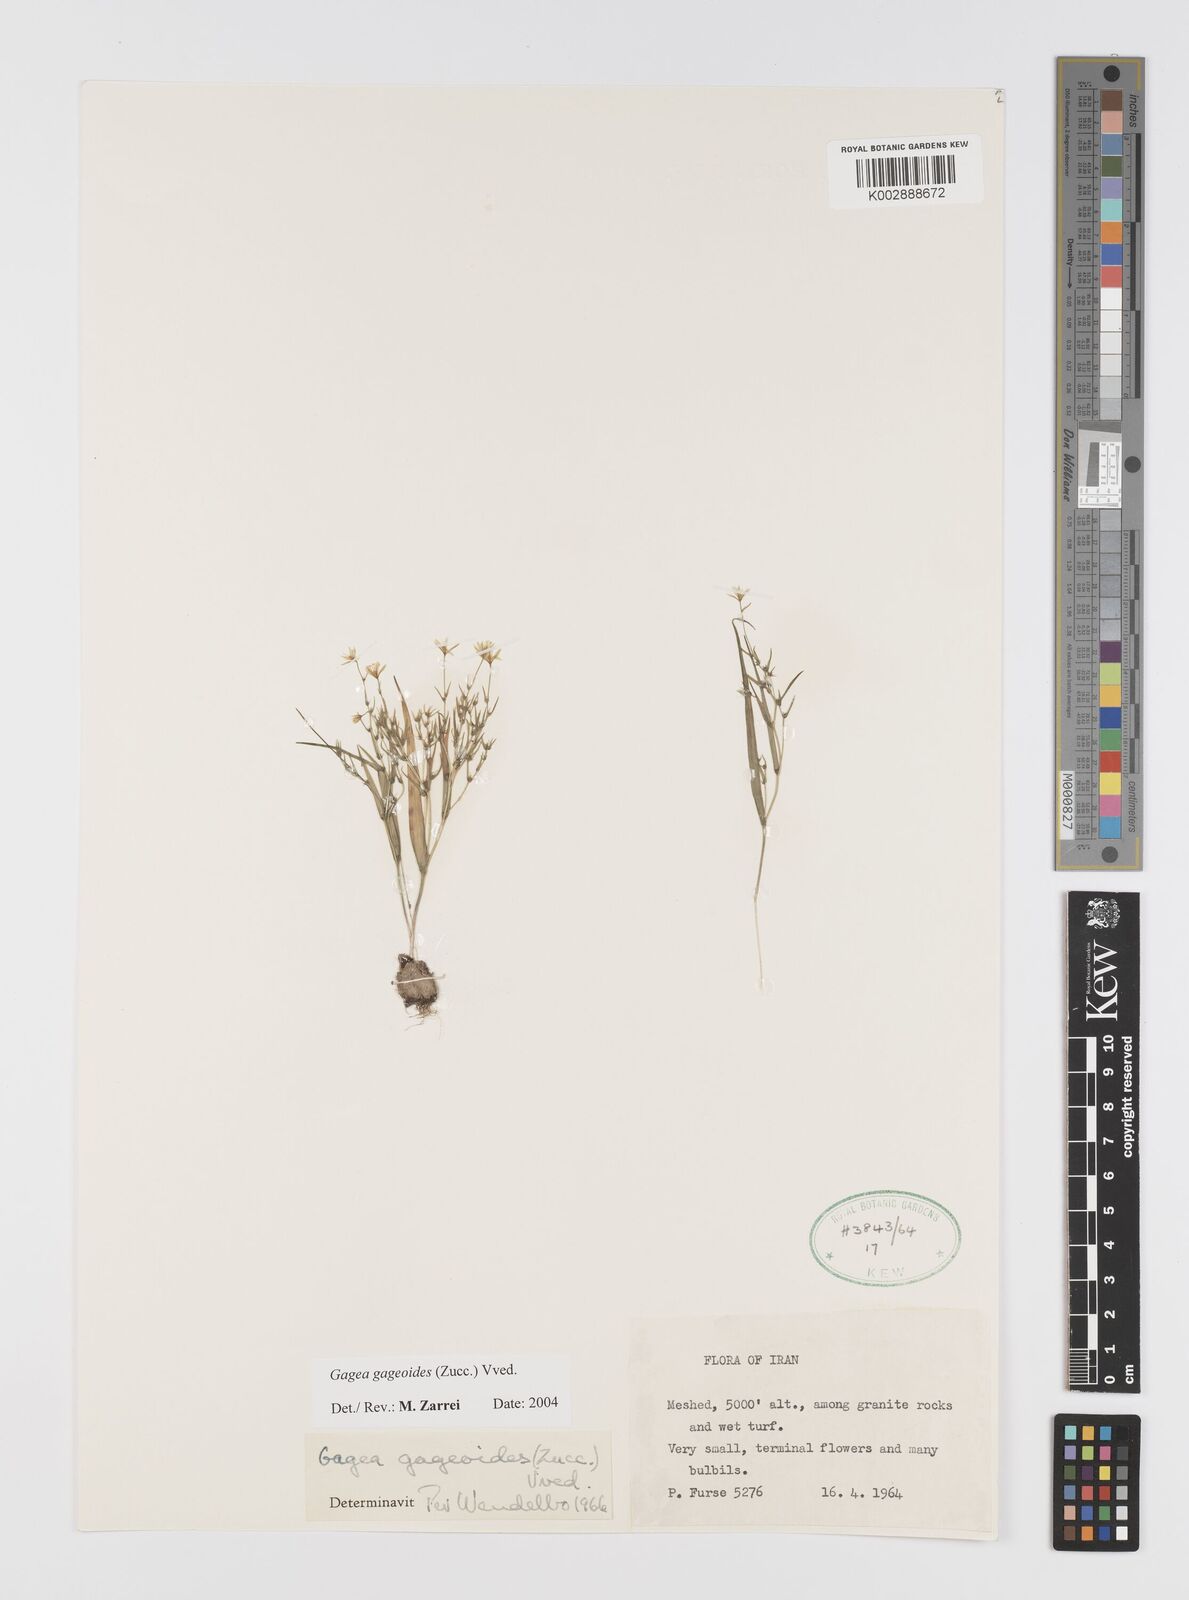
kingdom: Plantae
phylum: Tracheophyta
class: Liliopsida
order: Liliales
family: Liliaceae
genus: Gagea
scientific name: Gagea gageoides
